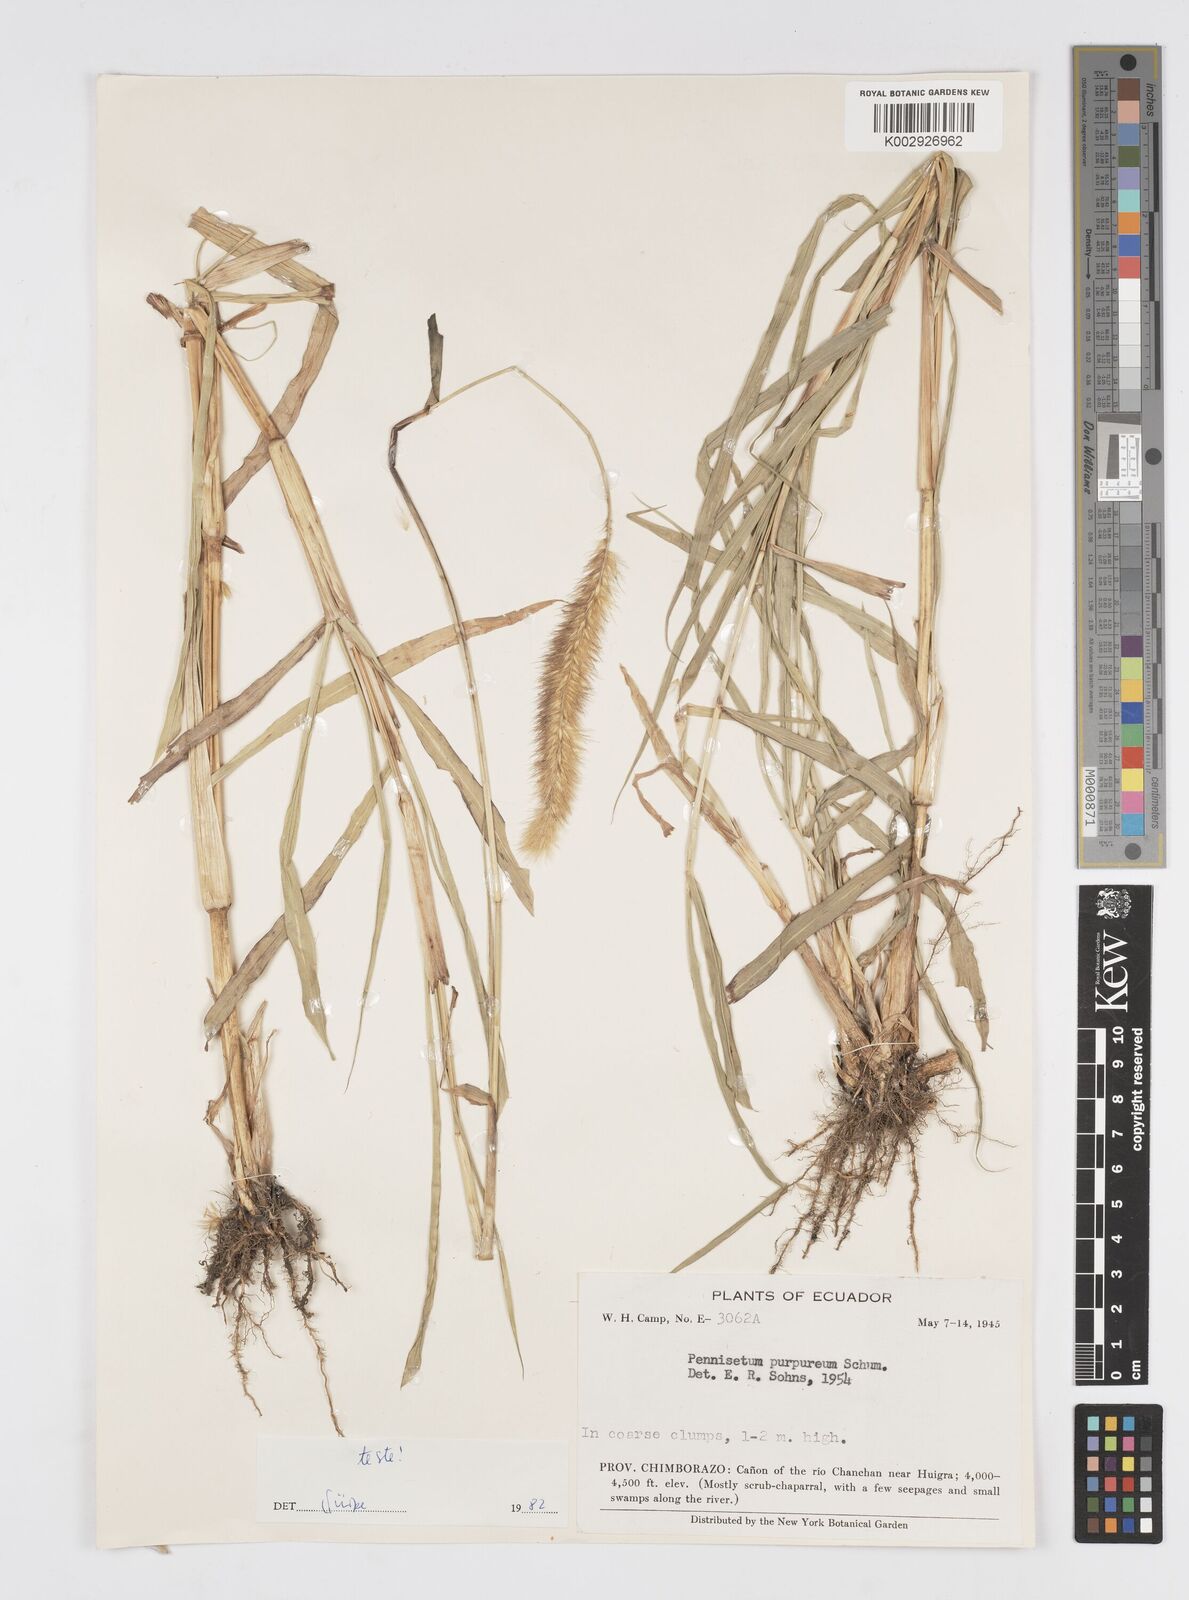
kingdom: Plantae
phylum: Tracheophyta
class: Liliopsida
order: Poales
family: Poaceae
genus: Cenchrus
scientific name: Cenchrus purpureus
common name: Elephant grass
